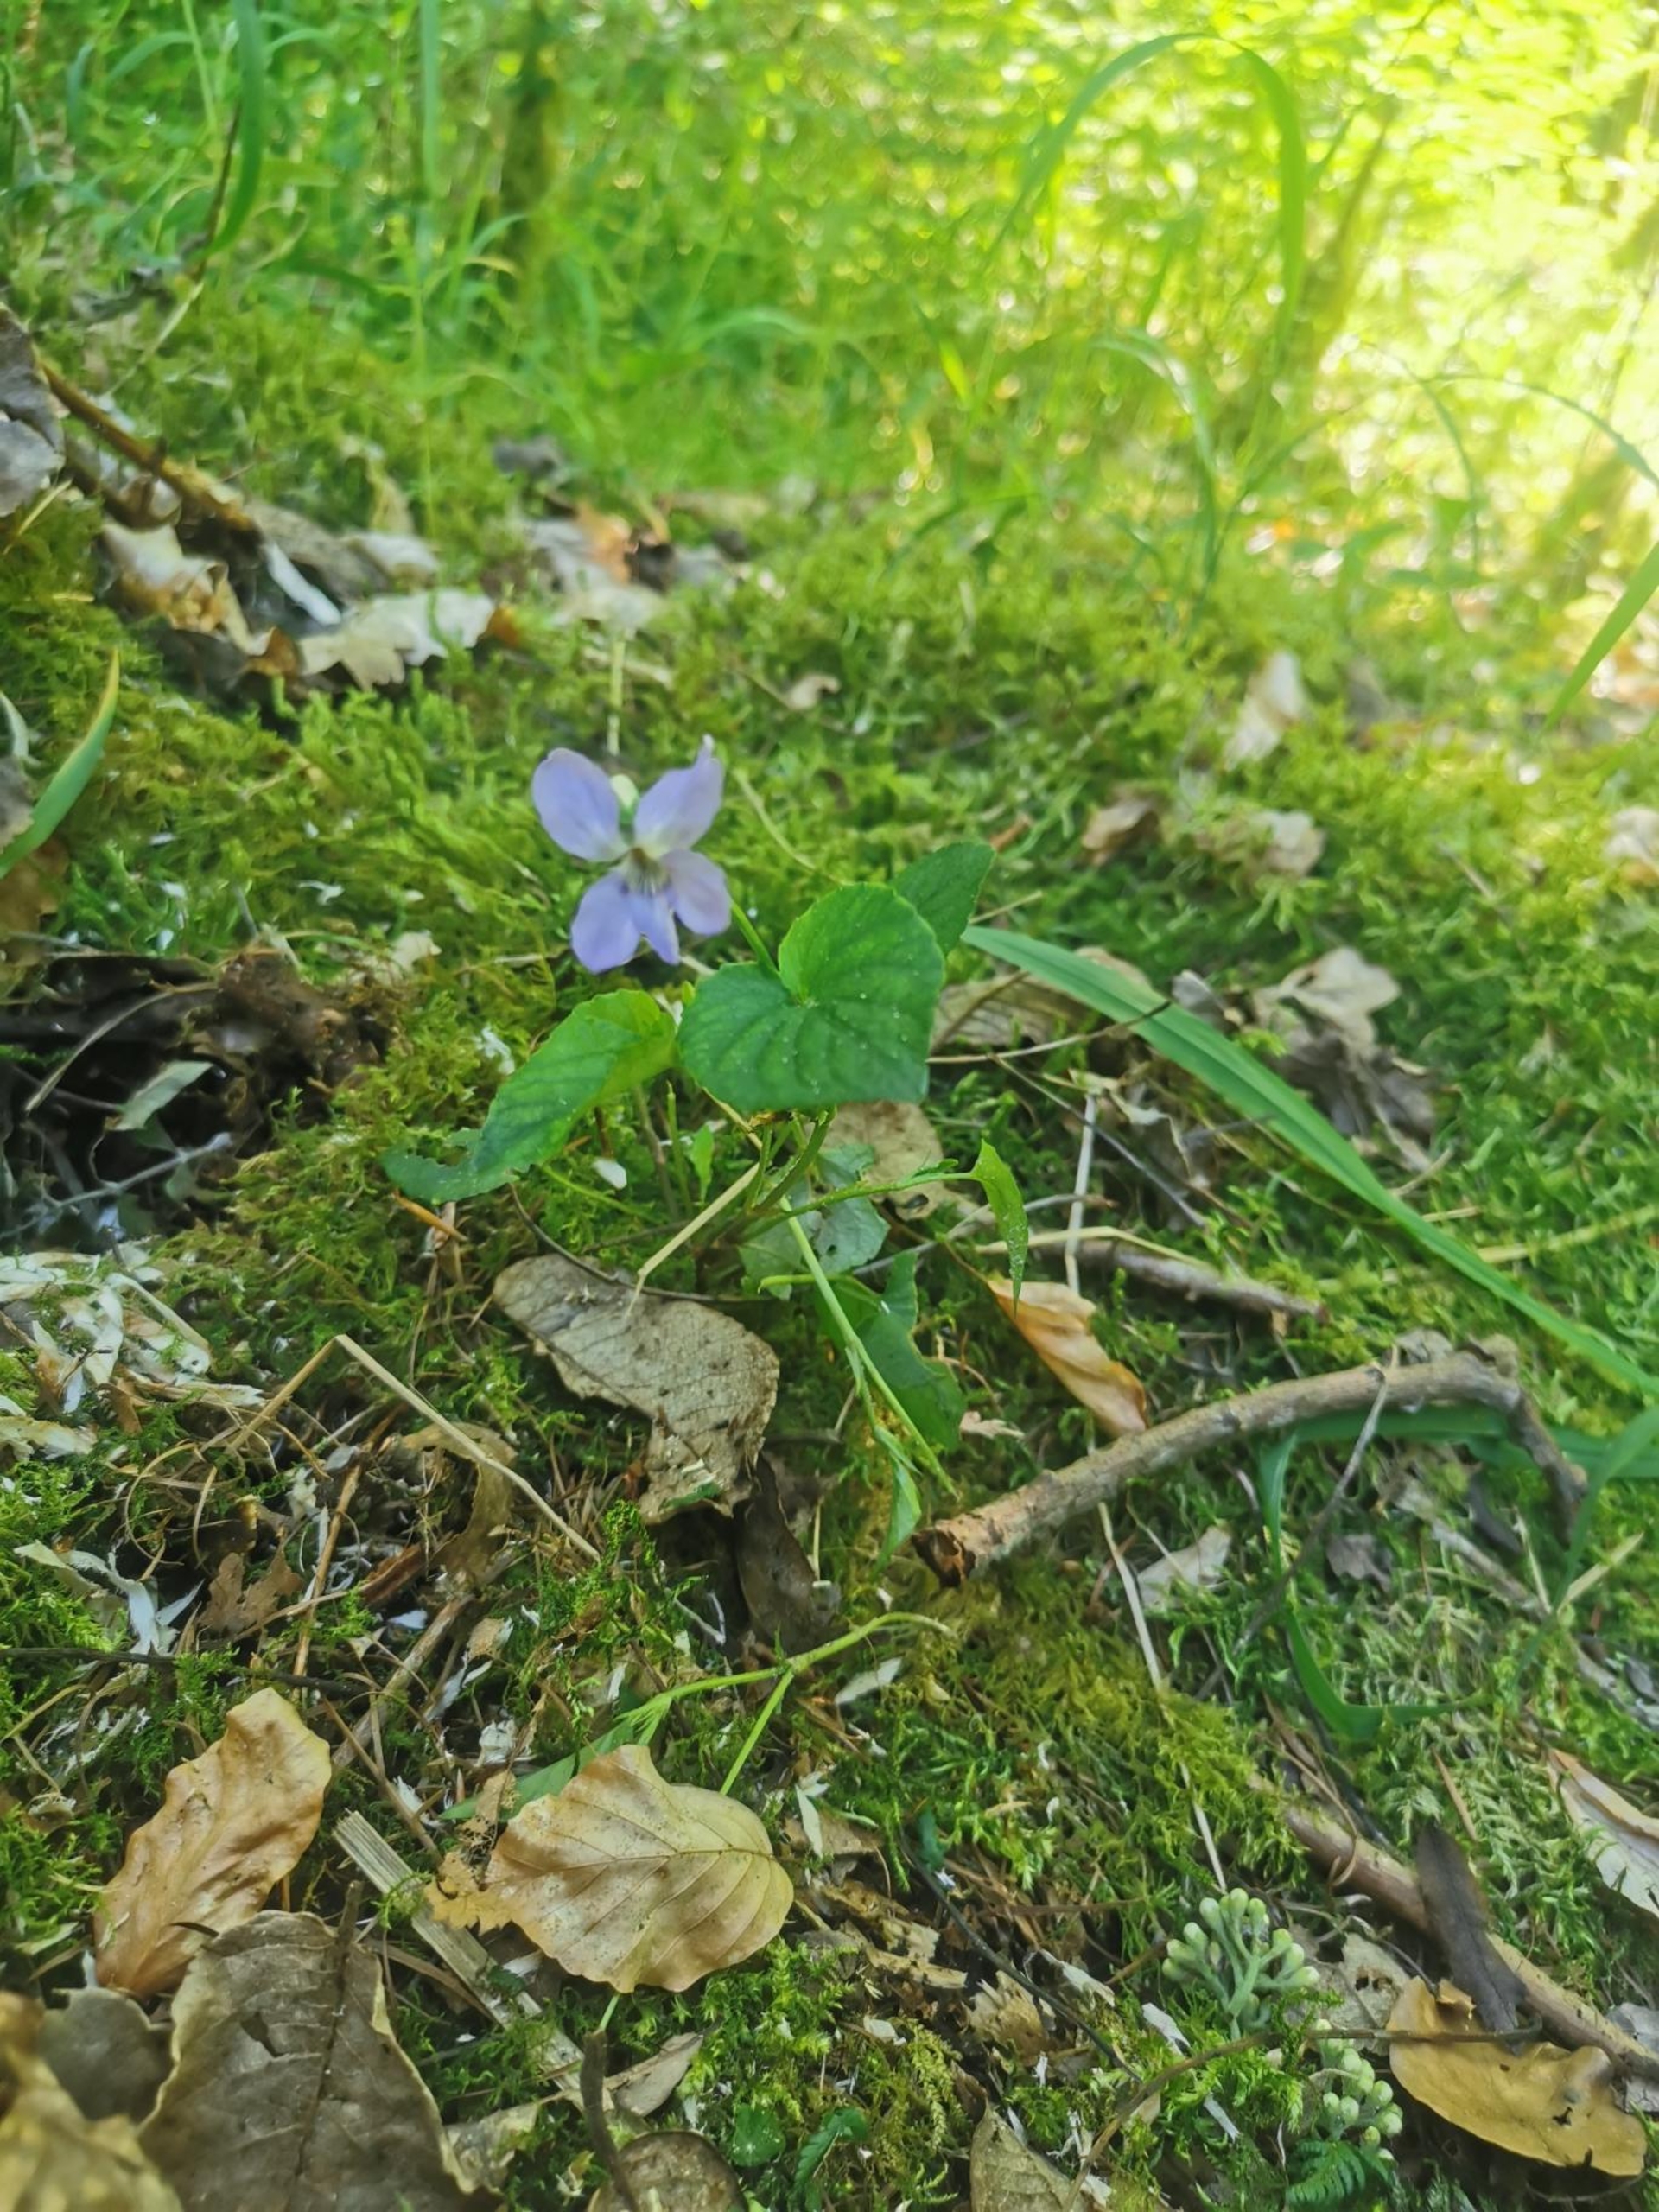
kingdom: Plantae
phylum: Tracheophyta
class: Magnoliopsida
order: Malpighiales
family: Violaceae
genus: Viola
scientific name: Viola riviniana
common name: Krat-viol
